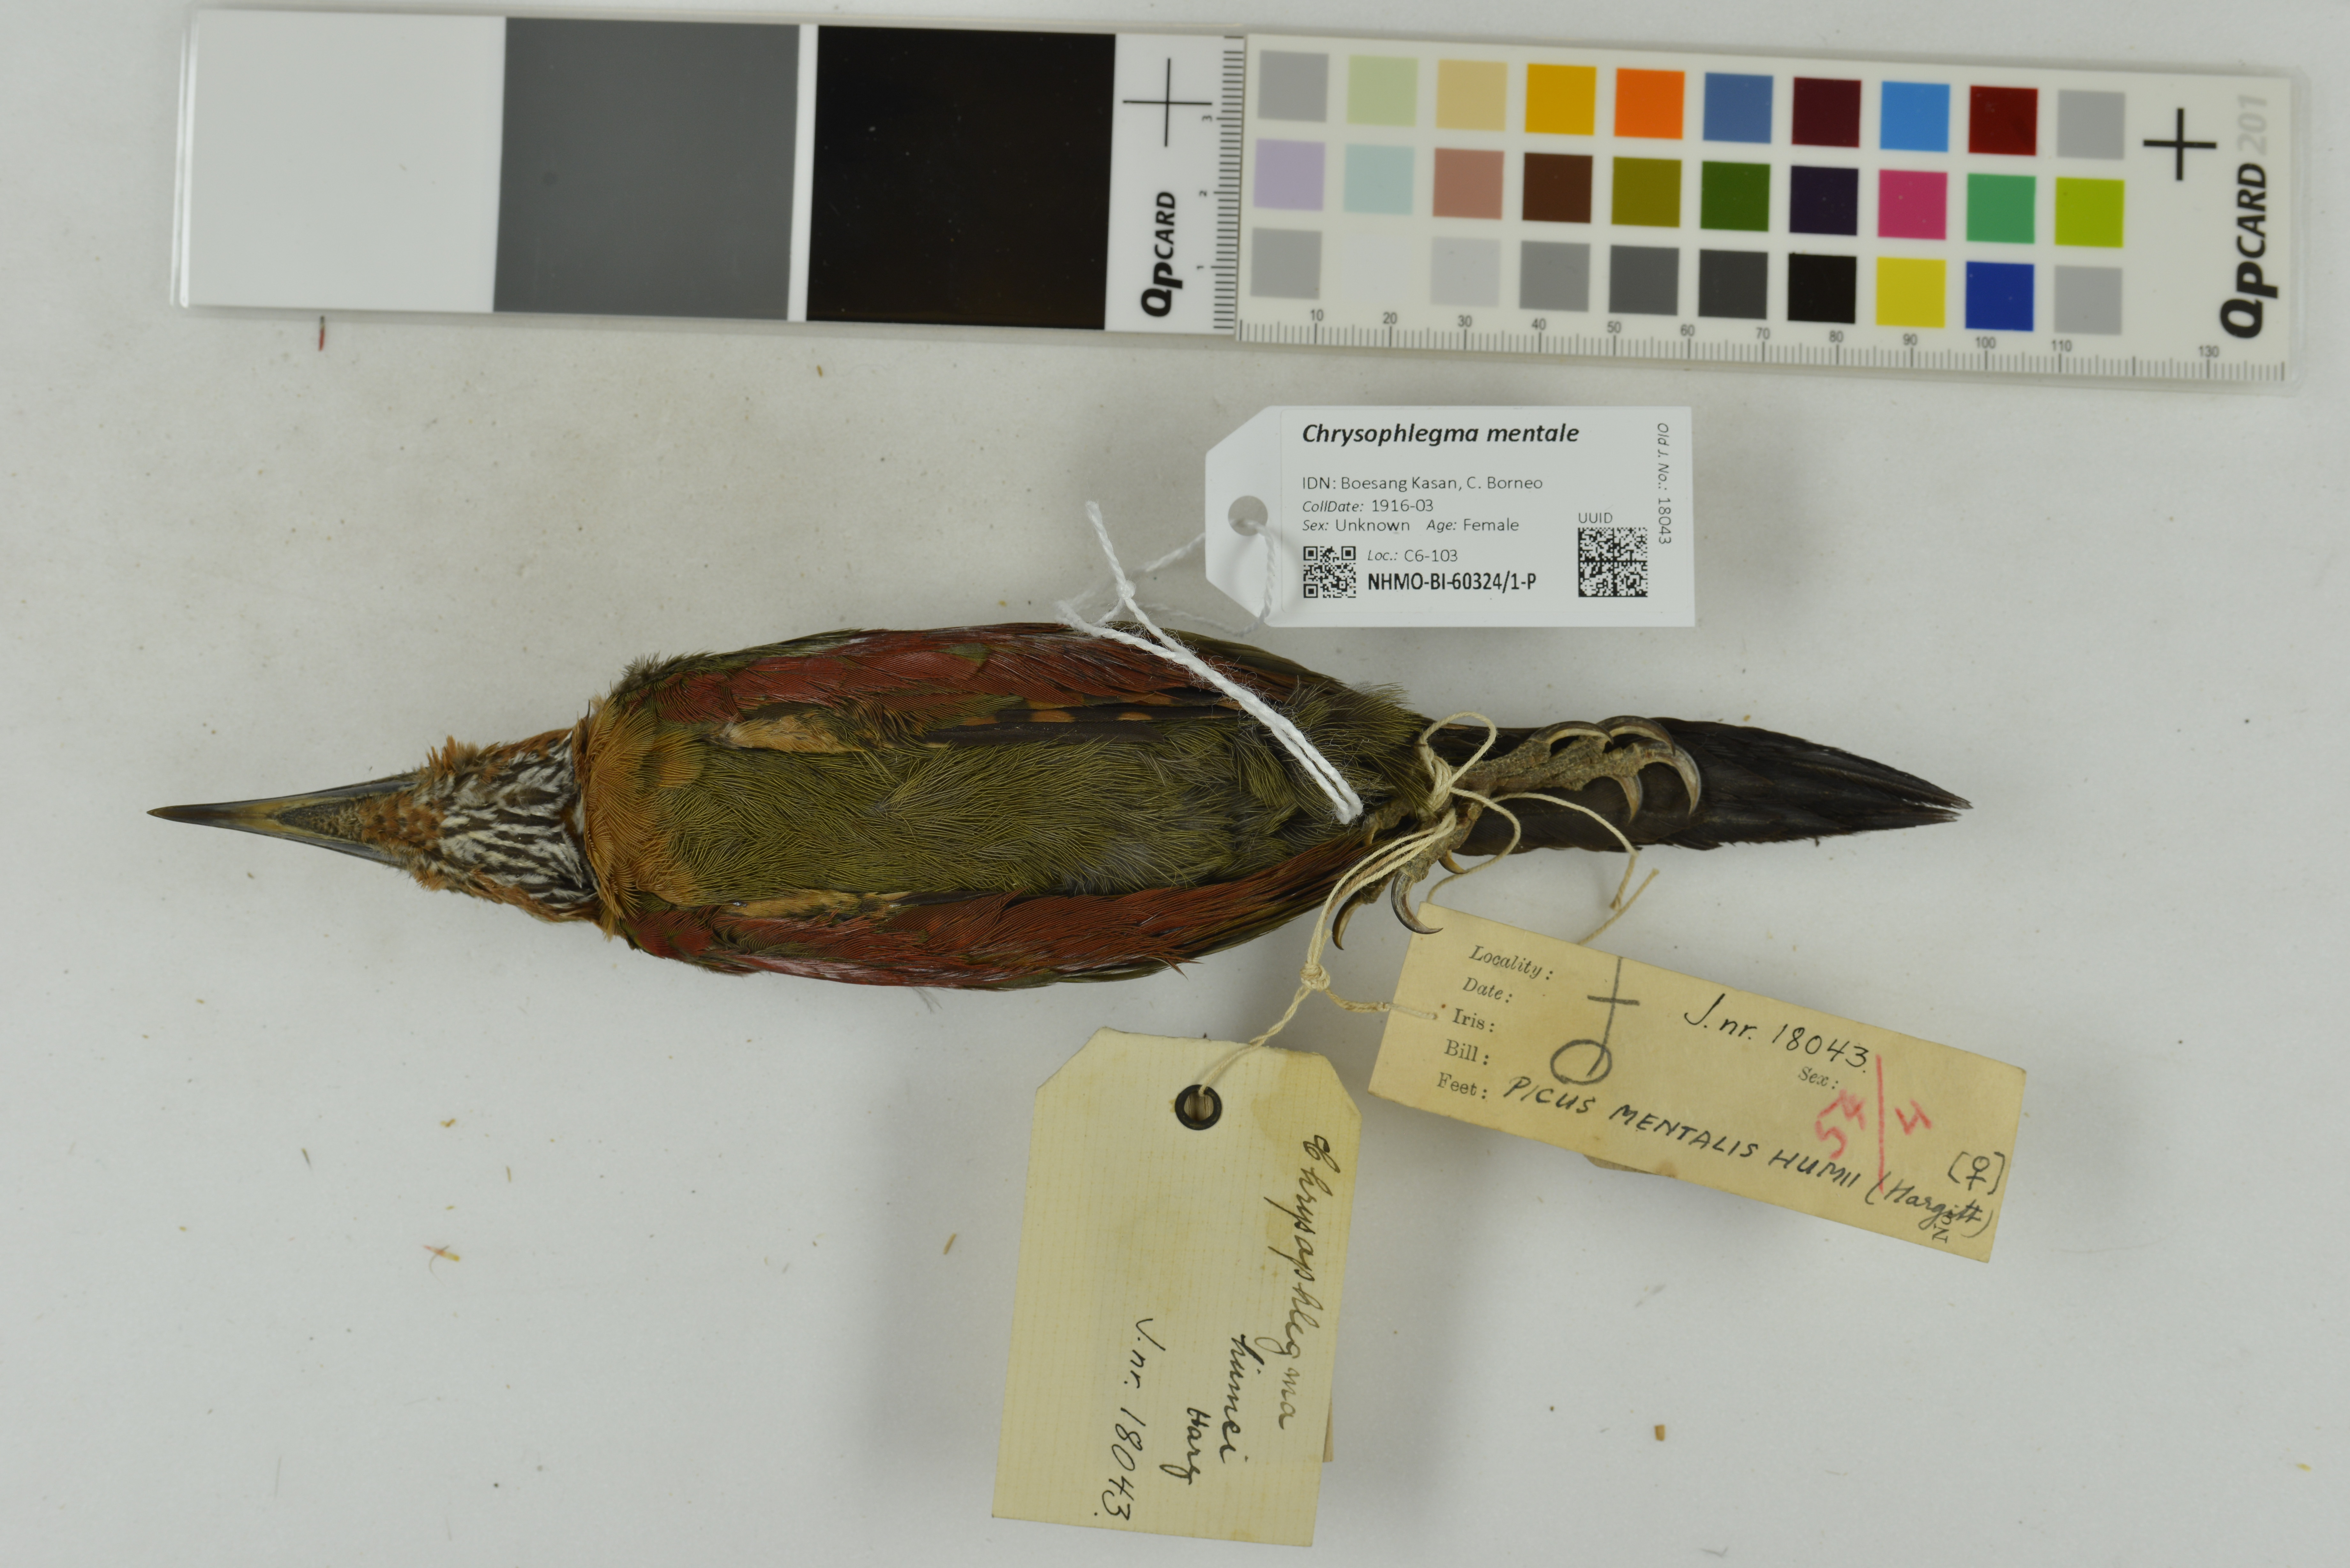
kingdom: Animalia
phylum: Chordata
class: Aves
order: Piciformes
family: Picidae
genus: Chrysophlegma
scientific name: Chrysophlegma mentale
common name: Checker-throated woodpecker
